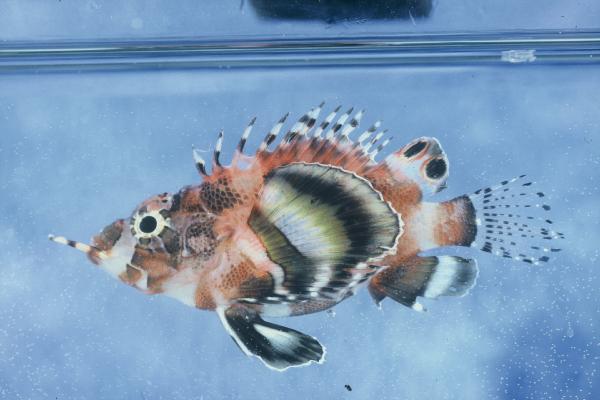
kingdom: Animalia
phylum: Chordata
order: Scorpaeniformes
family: Scorpaenidae
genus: Dendrochirus
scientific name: Dendrochirus biocellatus
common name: Twinspot lionfish
